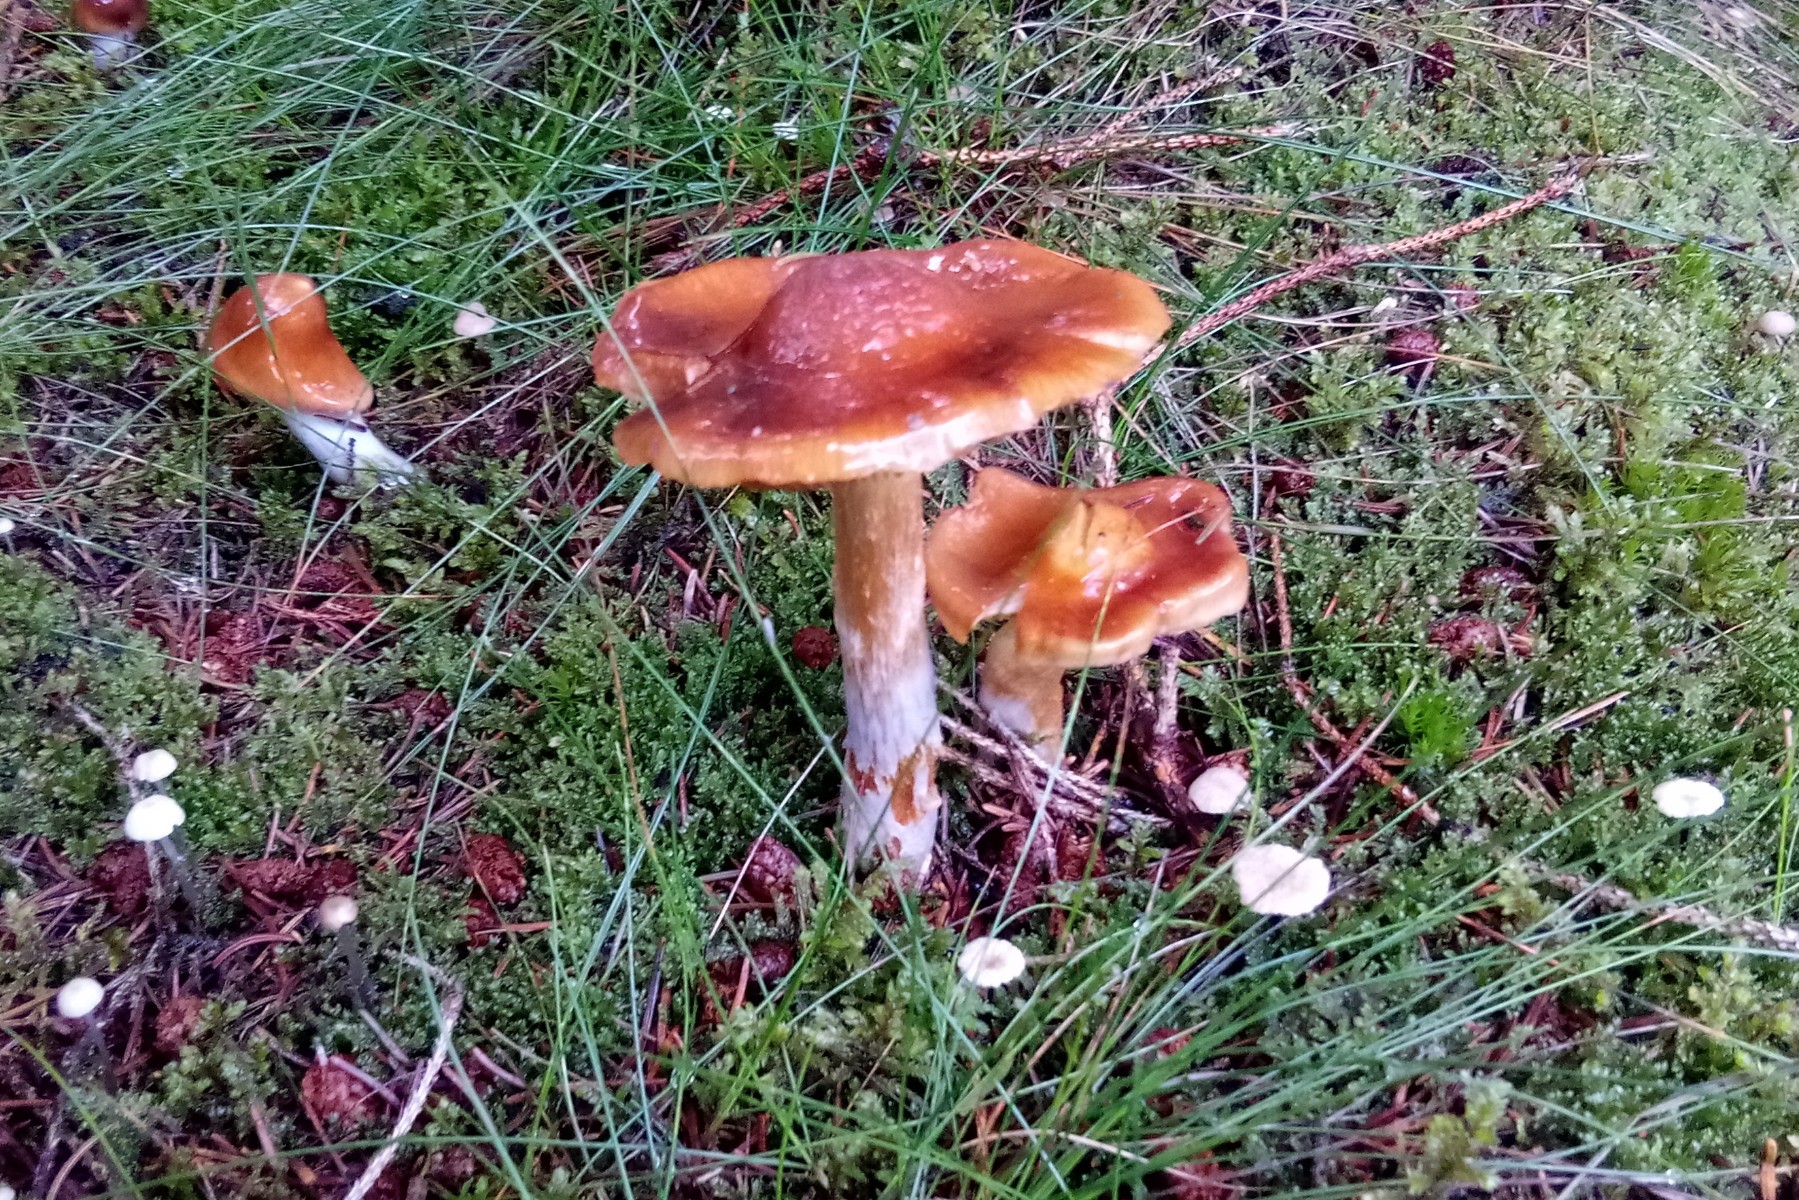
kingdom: Fungi
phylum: Basidiomycota
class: Agaricomycetes
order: Agaricales
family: Cortinariaceae
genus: Cortinarius
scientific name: Cortinarius collinitus
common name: spættet slørhat
